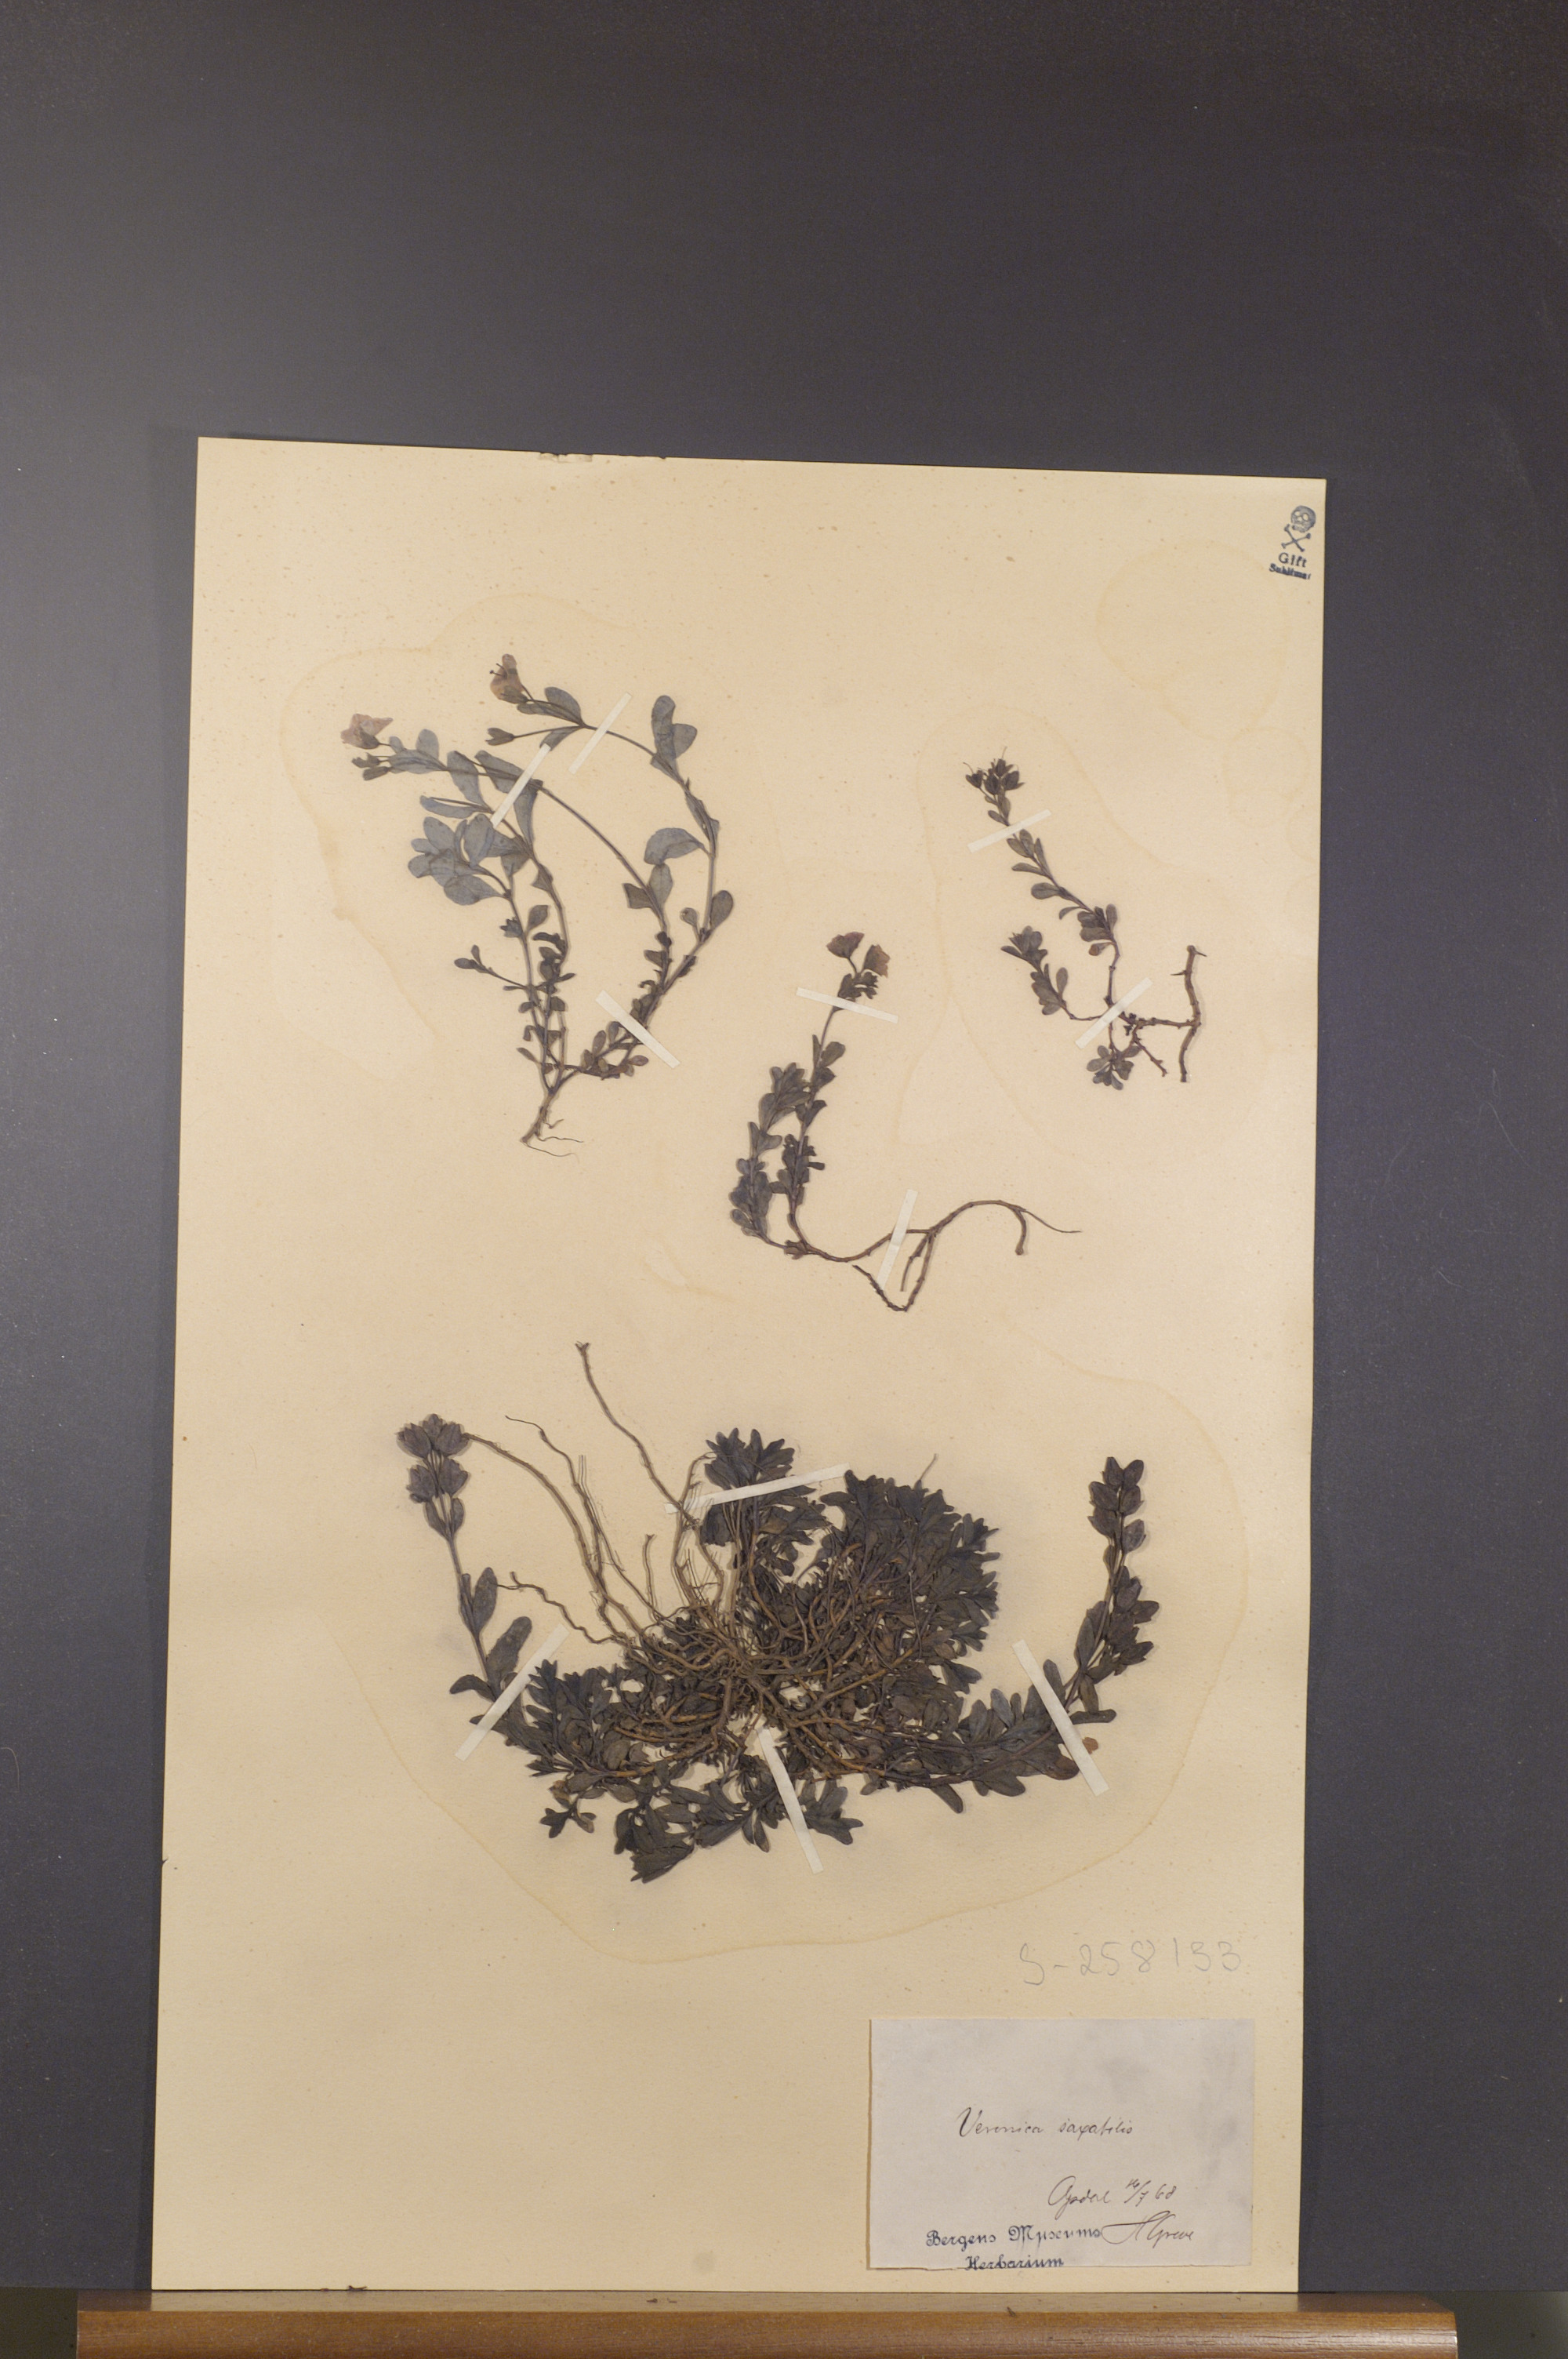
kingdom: Plantae
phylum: Tracheophyta
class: Magnoliopsida
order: Lamiales
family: Plantaginaceae
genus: Veronica
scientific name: Veronica fruticans
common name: Rock speedwell
